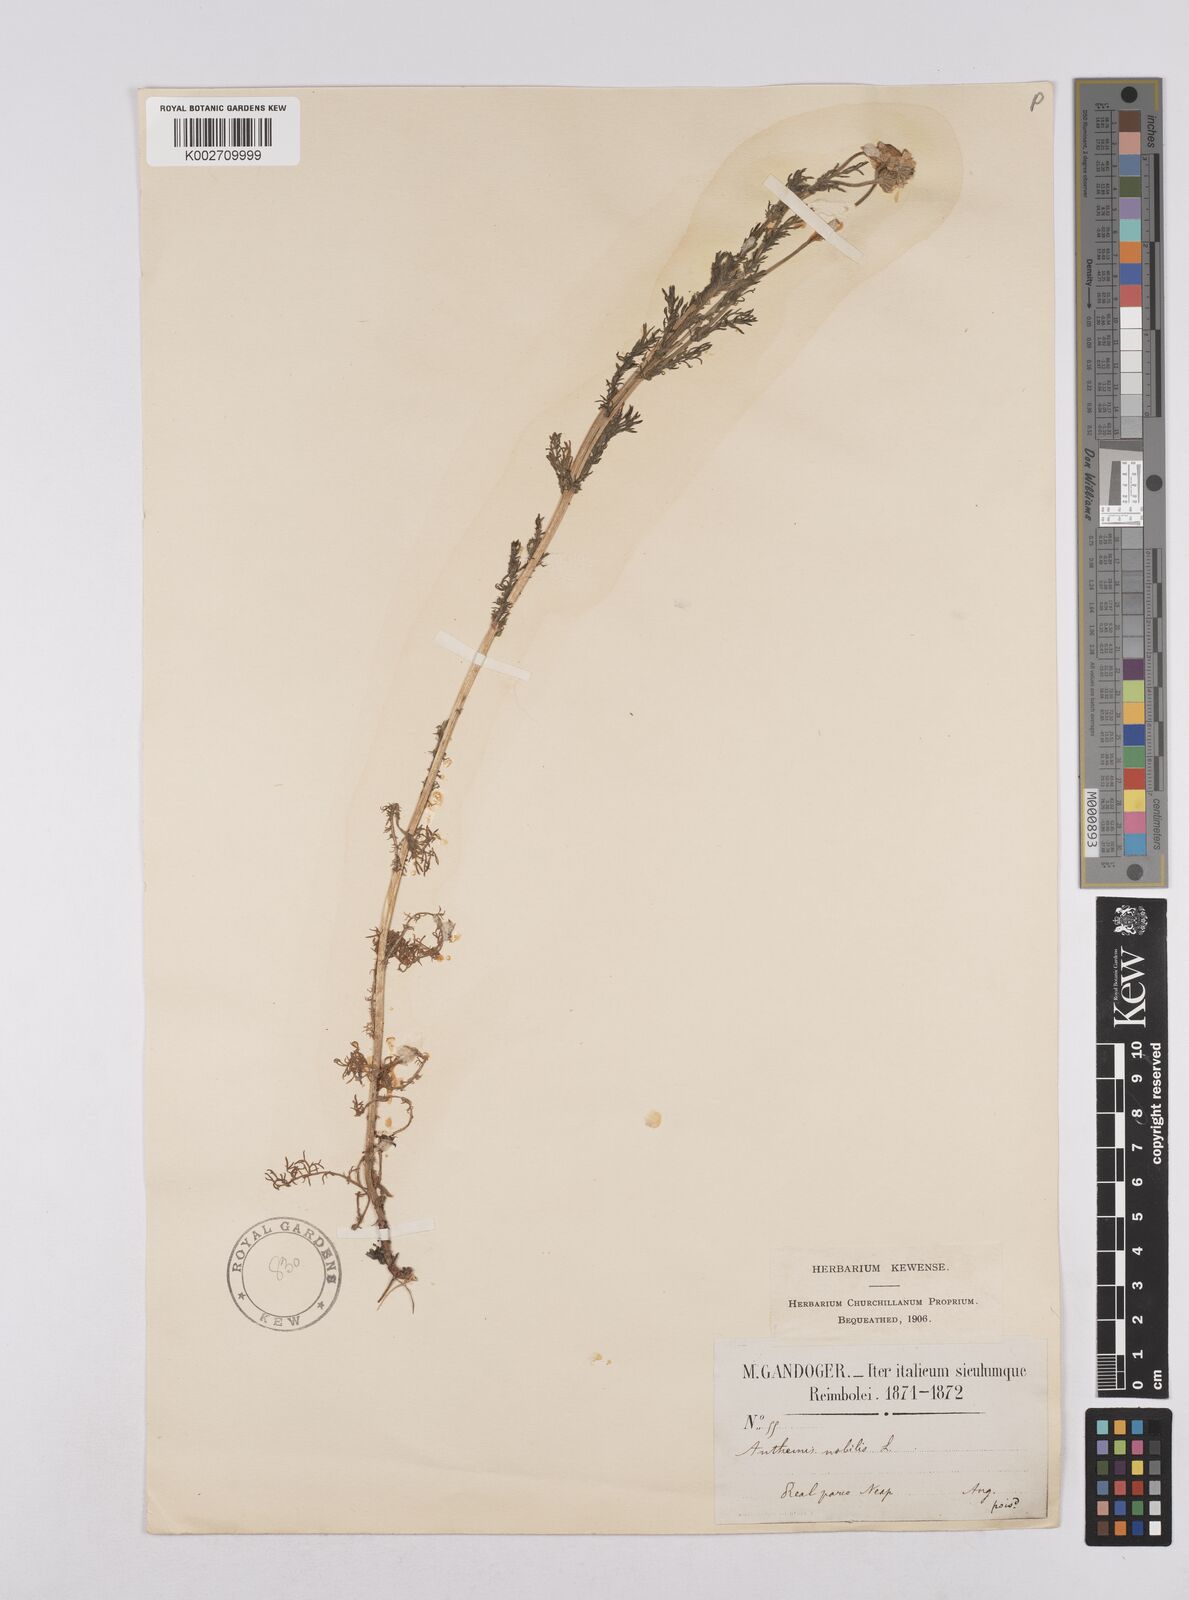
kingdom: Plantae
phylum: Tracheophyta
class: Magnoliopsida
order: Asterales
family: Asteraceae
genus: Chamaemelum
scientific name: Chamaemelum nobile
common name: Roman chamomile
